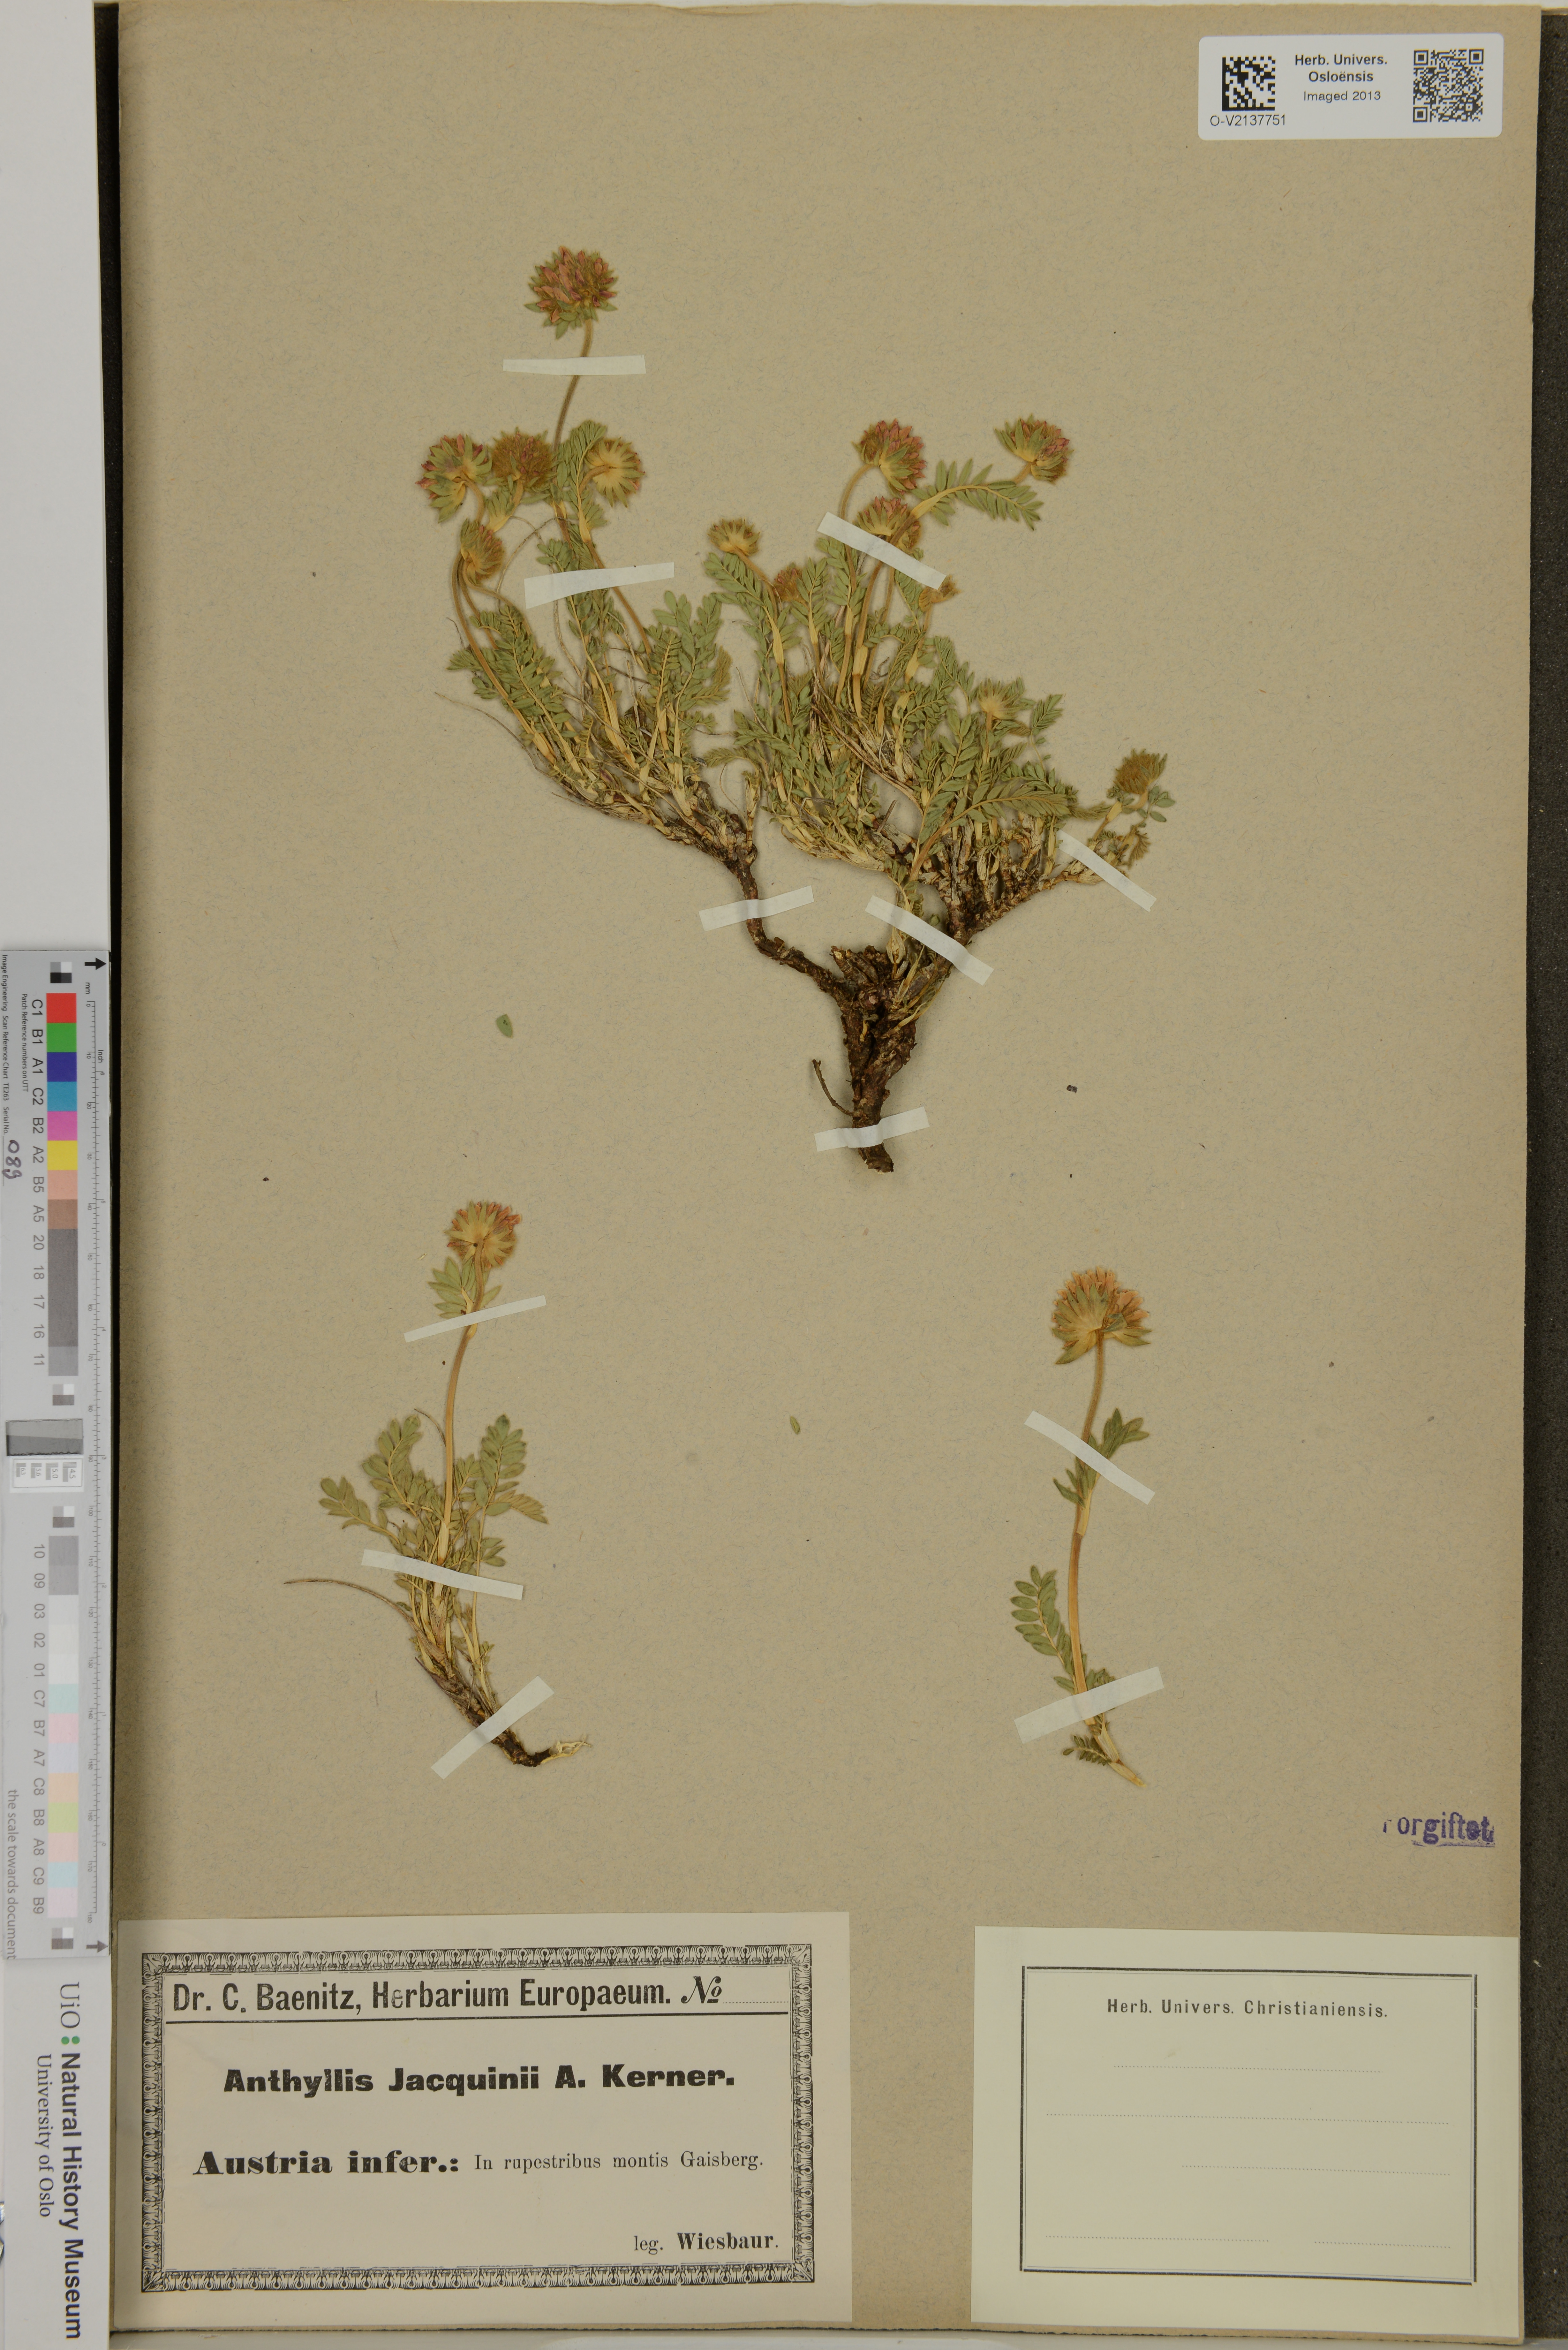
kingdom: Plantae
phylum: Tracheophyta
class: Magnoliopsida
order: Fabales
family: Fabaceae
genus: Anthyllis
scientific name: Anthyllis montana
